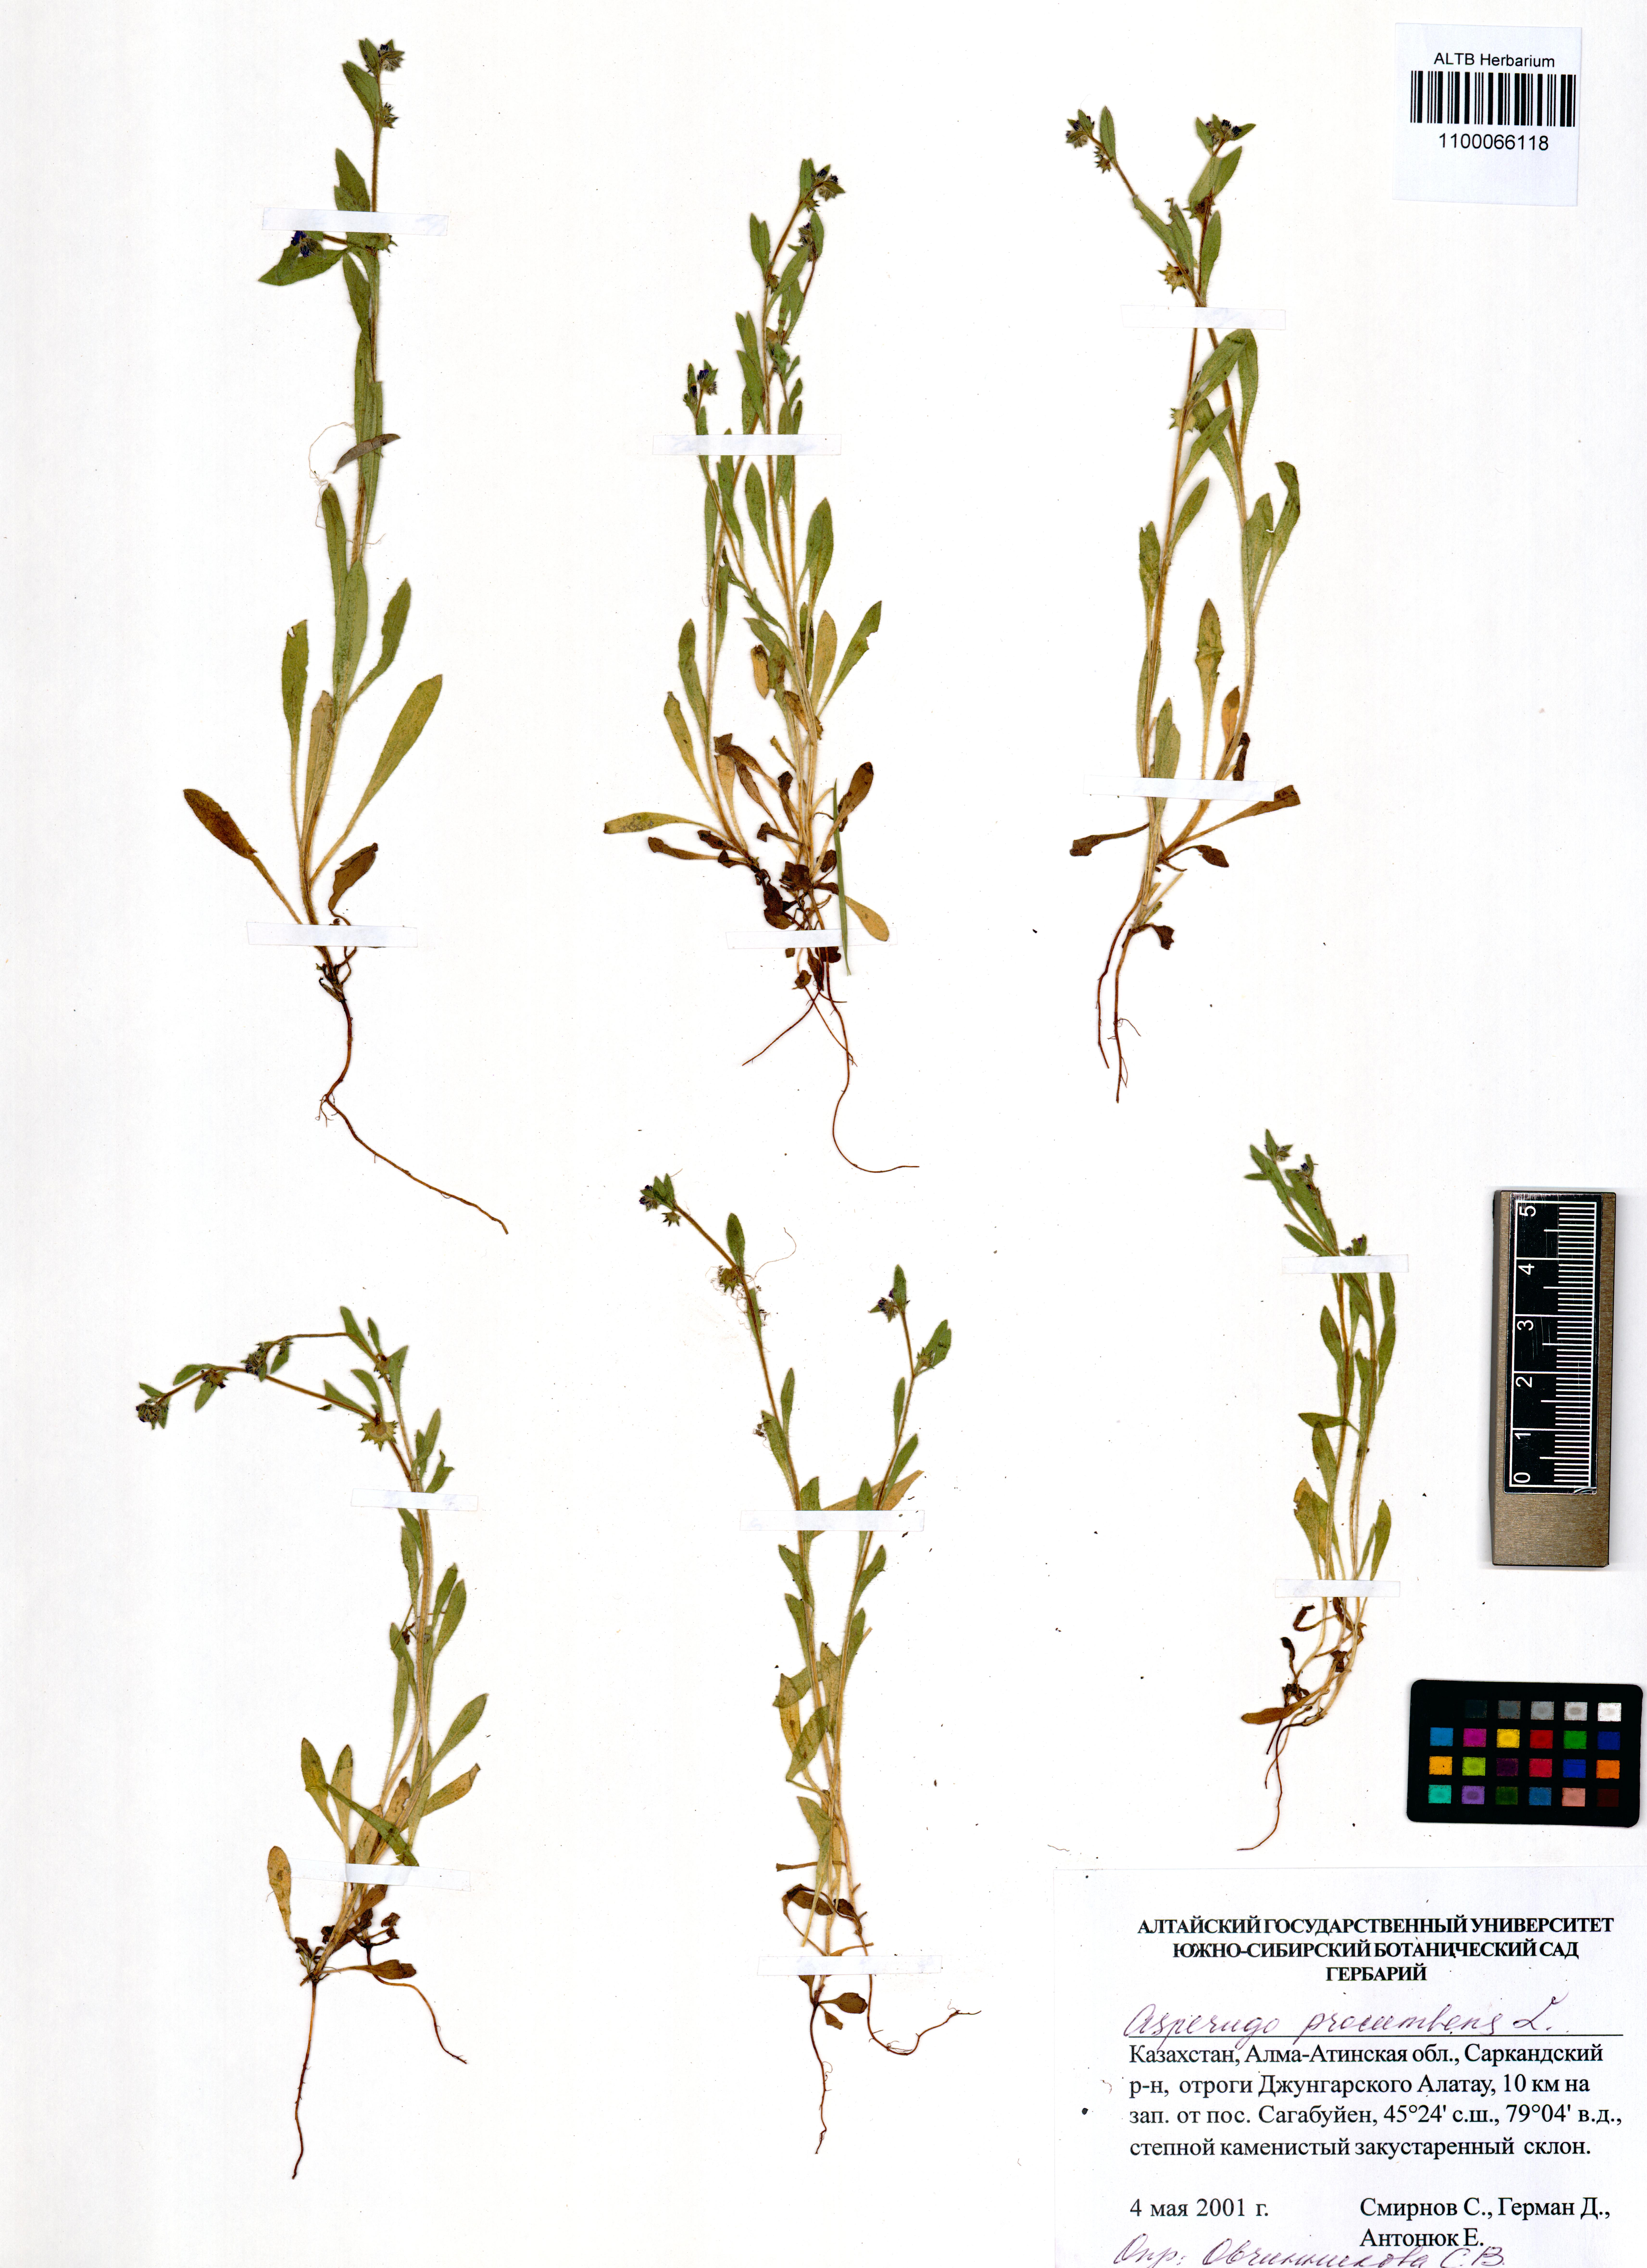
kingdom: Plantae
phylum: Tracheophyta
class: Magnoliopsida
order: Boraginales
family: Boraginaceae
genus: Asperugo
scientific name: Asperugo procumbens
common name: Madwort
